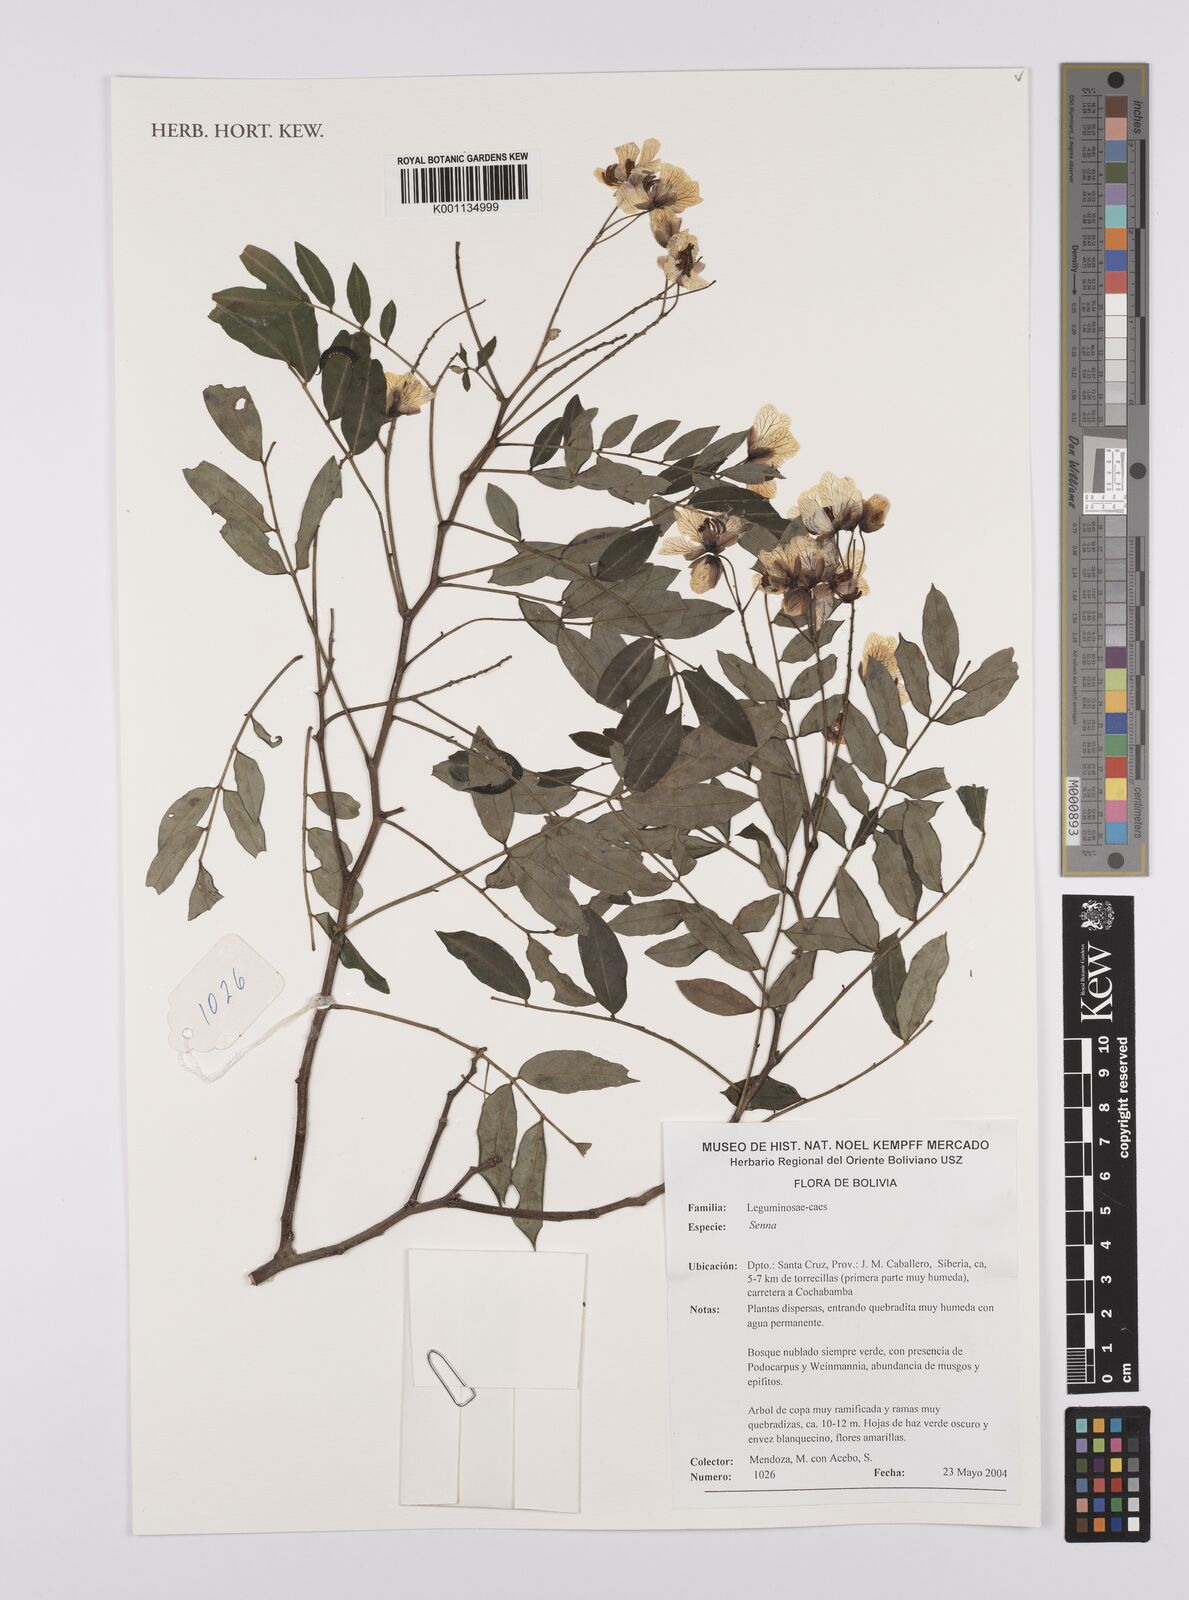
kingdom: Plantae
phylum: Tracheophyta
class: Magnoliopsida
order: Fabales
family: Fabaceae
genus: Senna
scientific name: Senna
